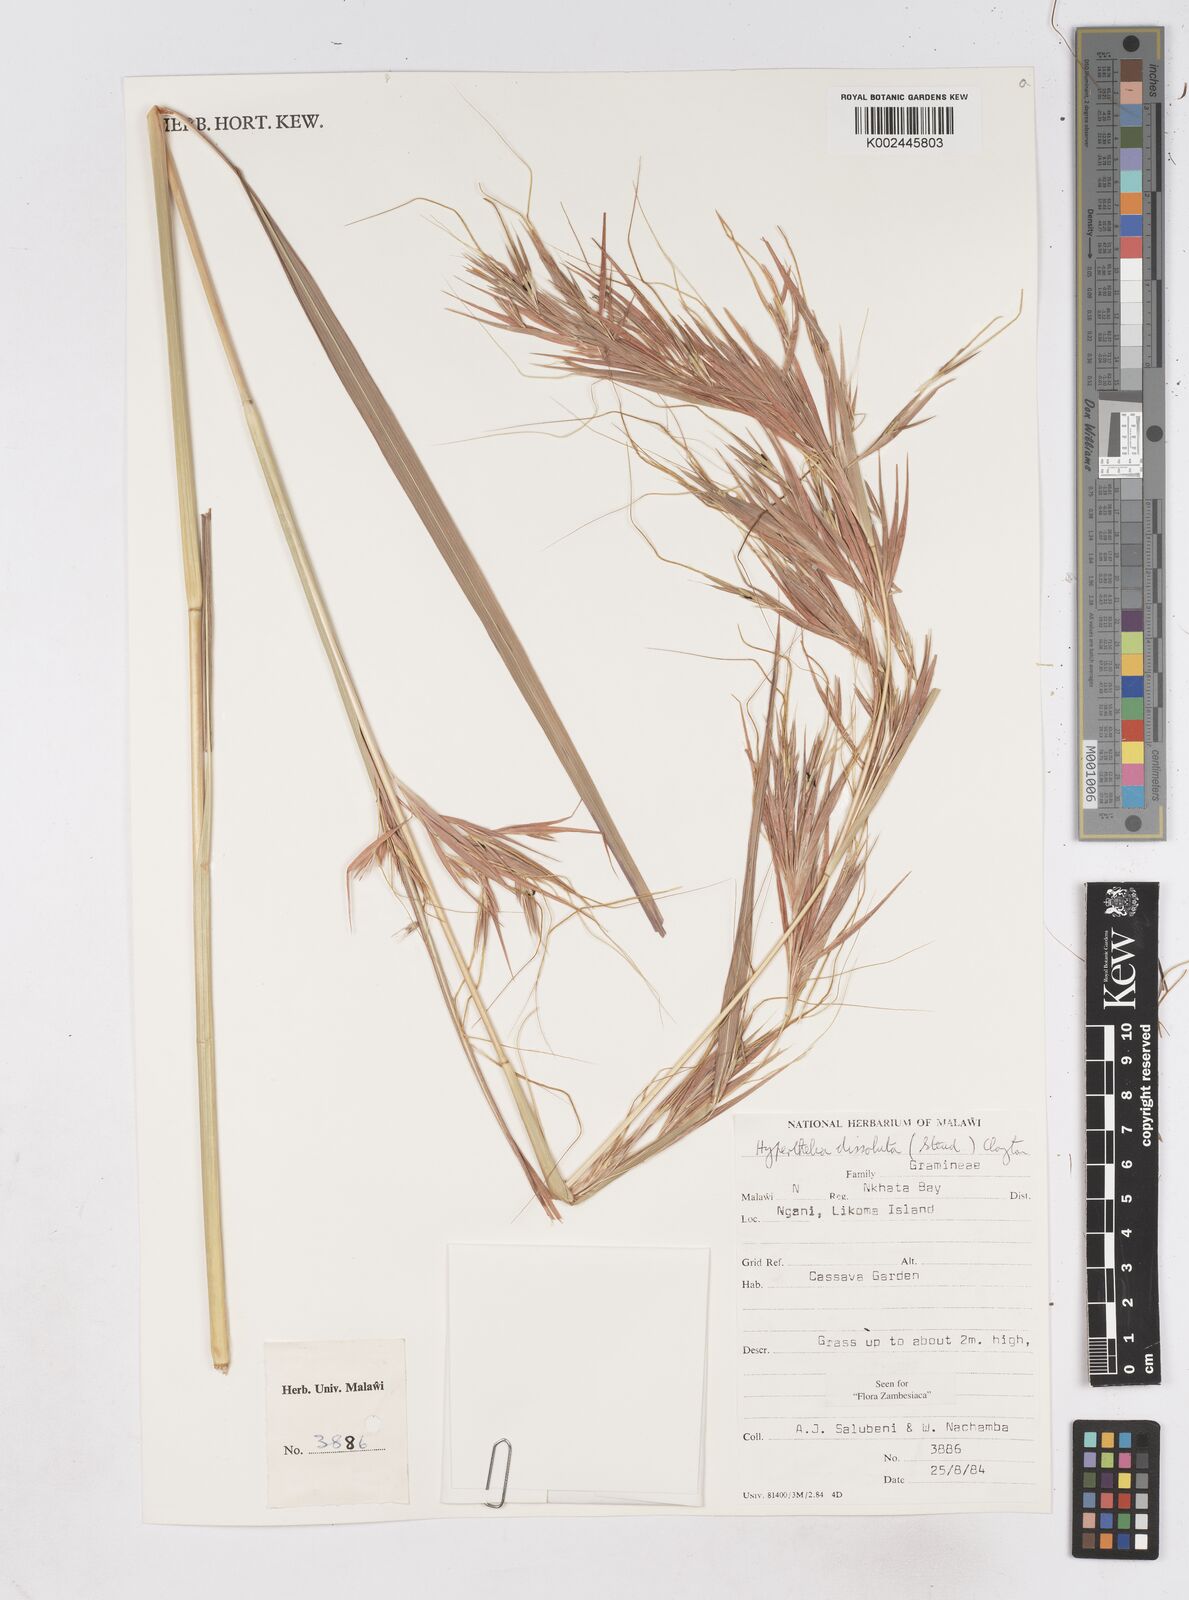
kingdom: Plantae
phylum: Tracheophyta
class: Liliopsida
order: Poales
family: Poaceae
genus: Hyperthelia
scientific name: Hyperthelia dissoluta
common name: Yellow thatching grass
